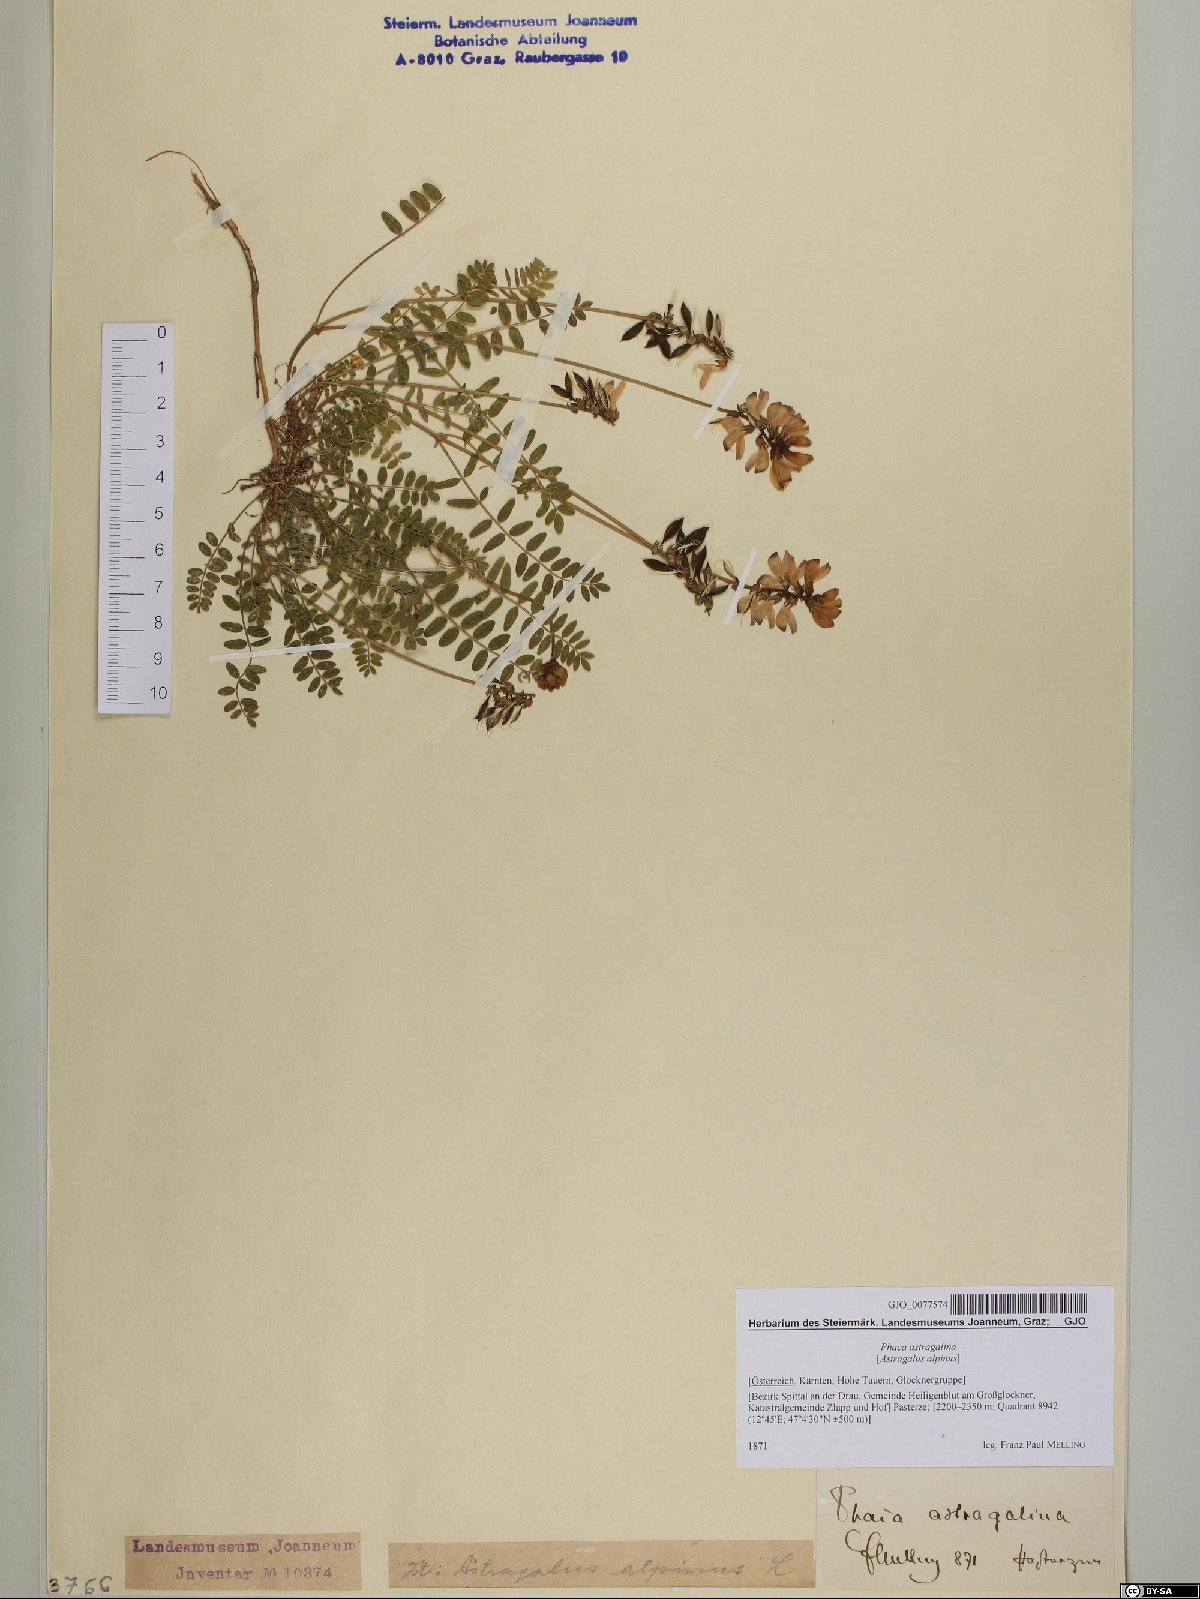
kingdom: Plantae
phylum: Tracheophyta
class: Magnoliopsida
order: Fabales
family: Fabaceae
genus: Astragalus
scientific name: Astragalus alpinus
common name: Alpine milk-vetch
